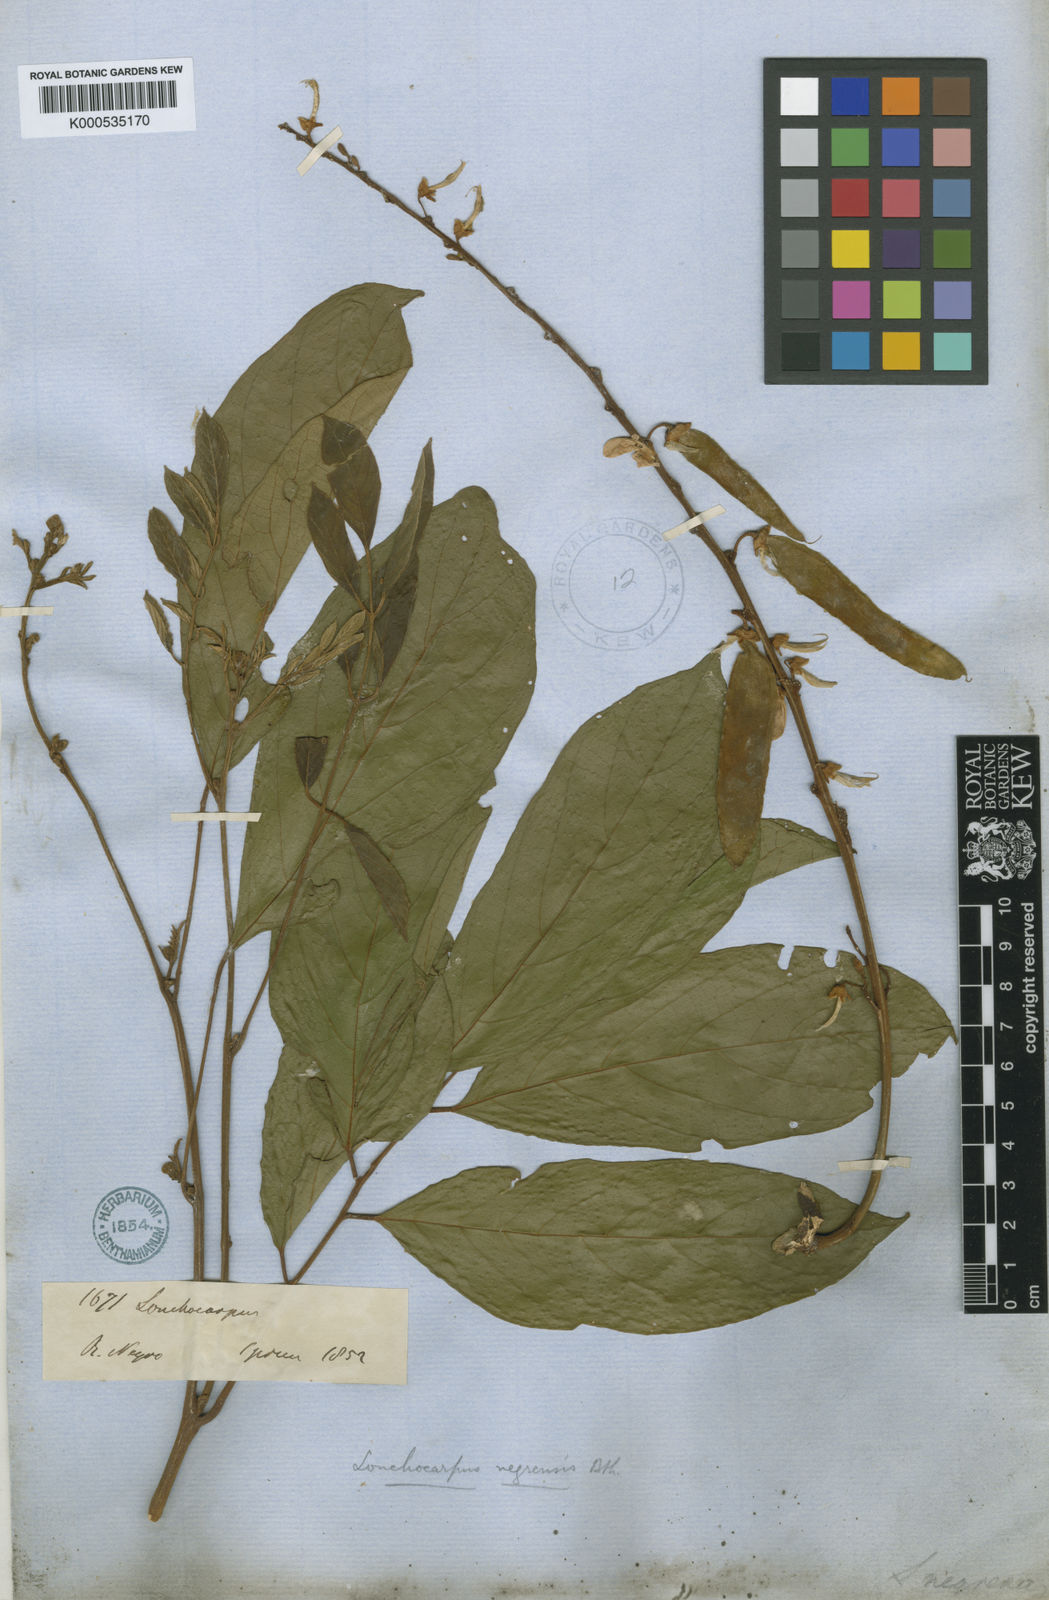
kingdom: Plantae
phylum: Tracheophyta
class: Magnoliopsida
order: Fabales
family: Fabaceae
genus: Deguelia
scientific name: Deguelia negrensis
